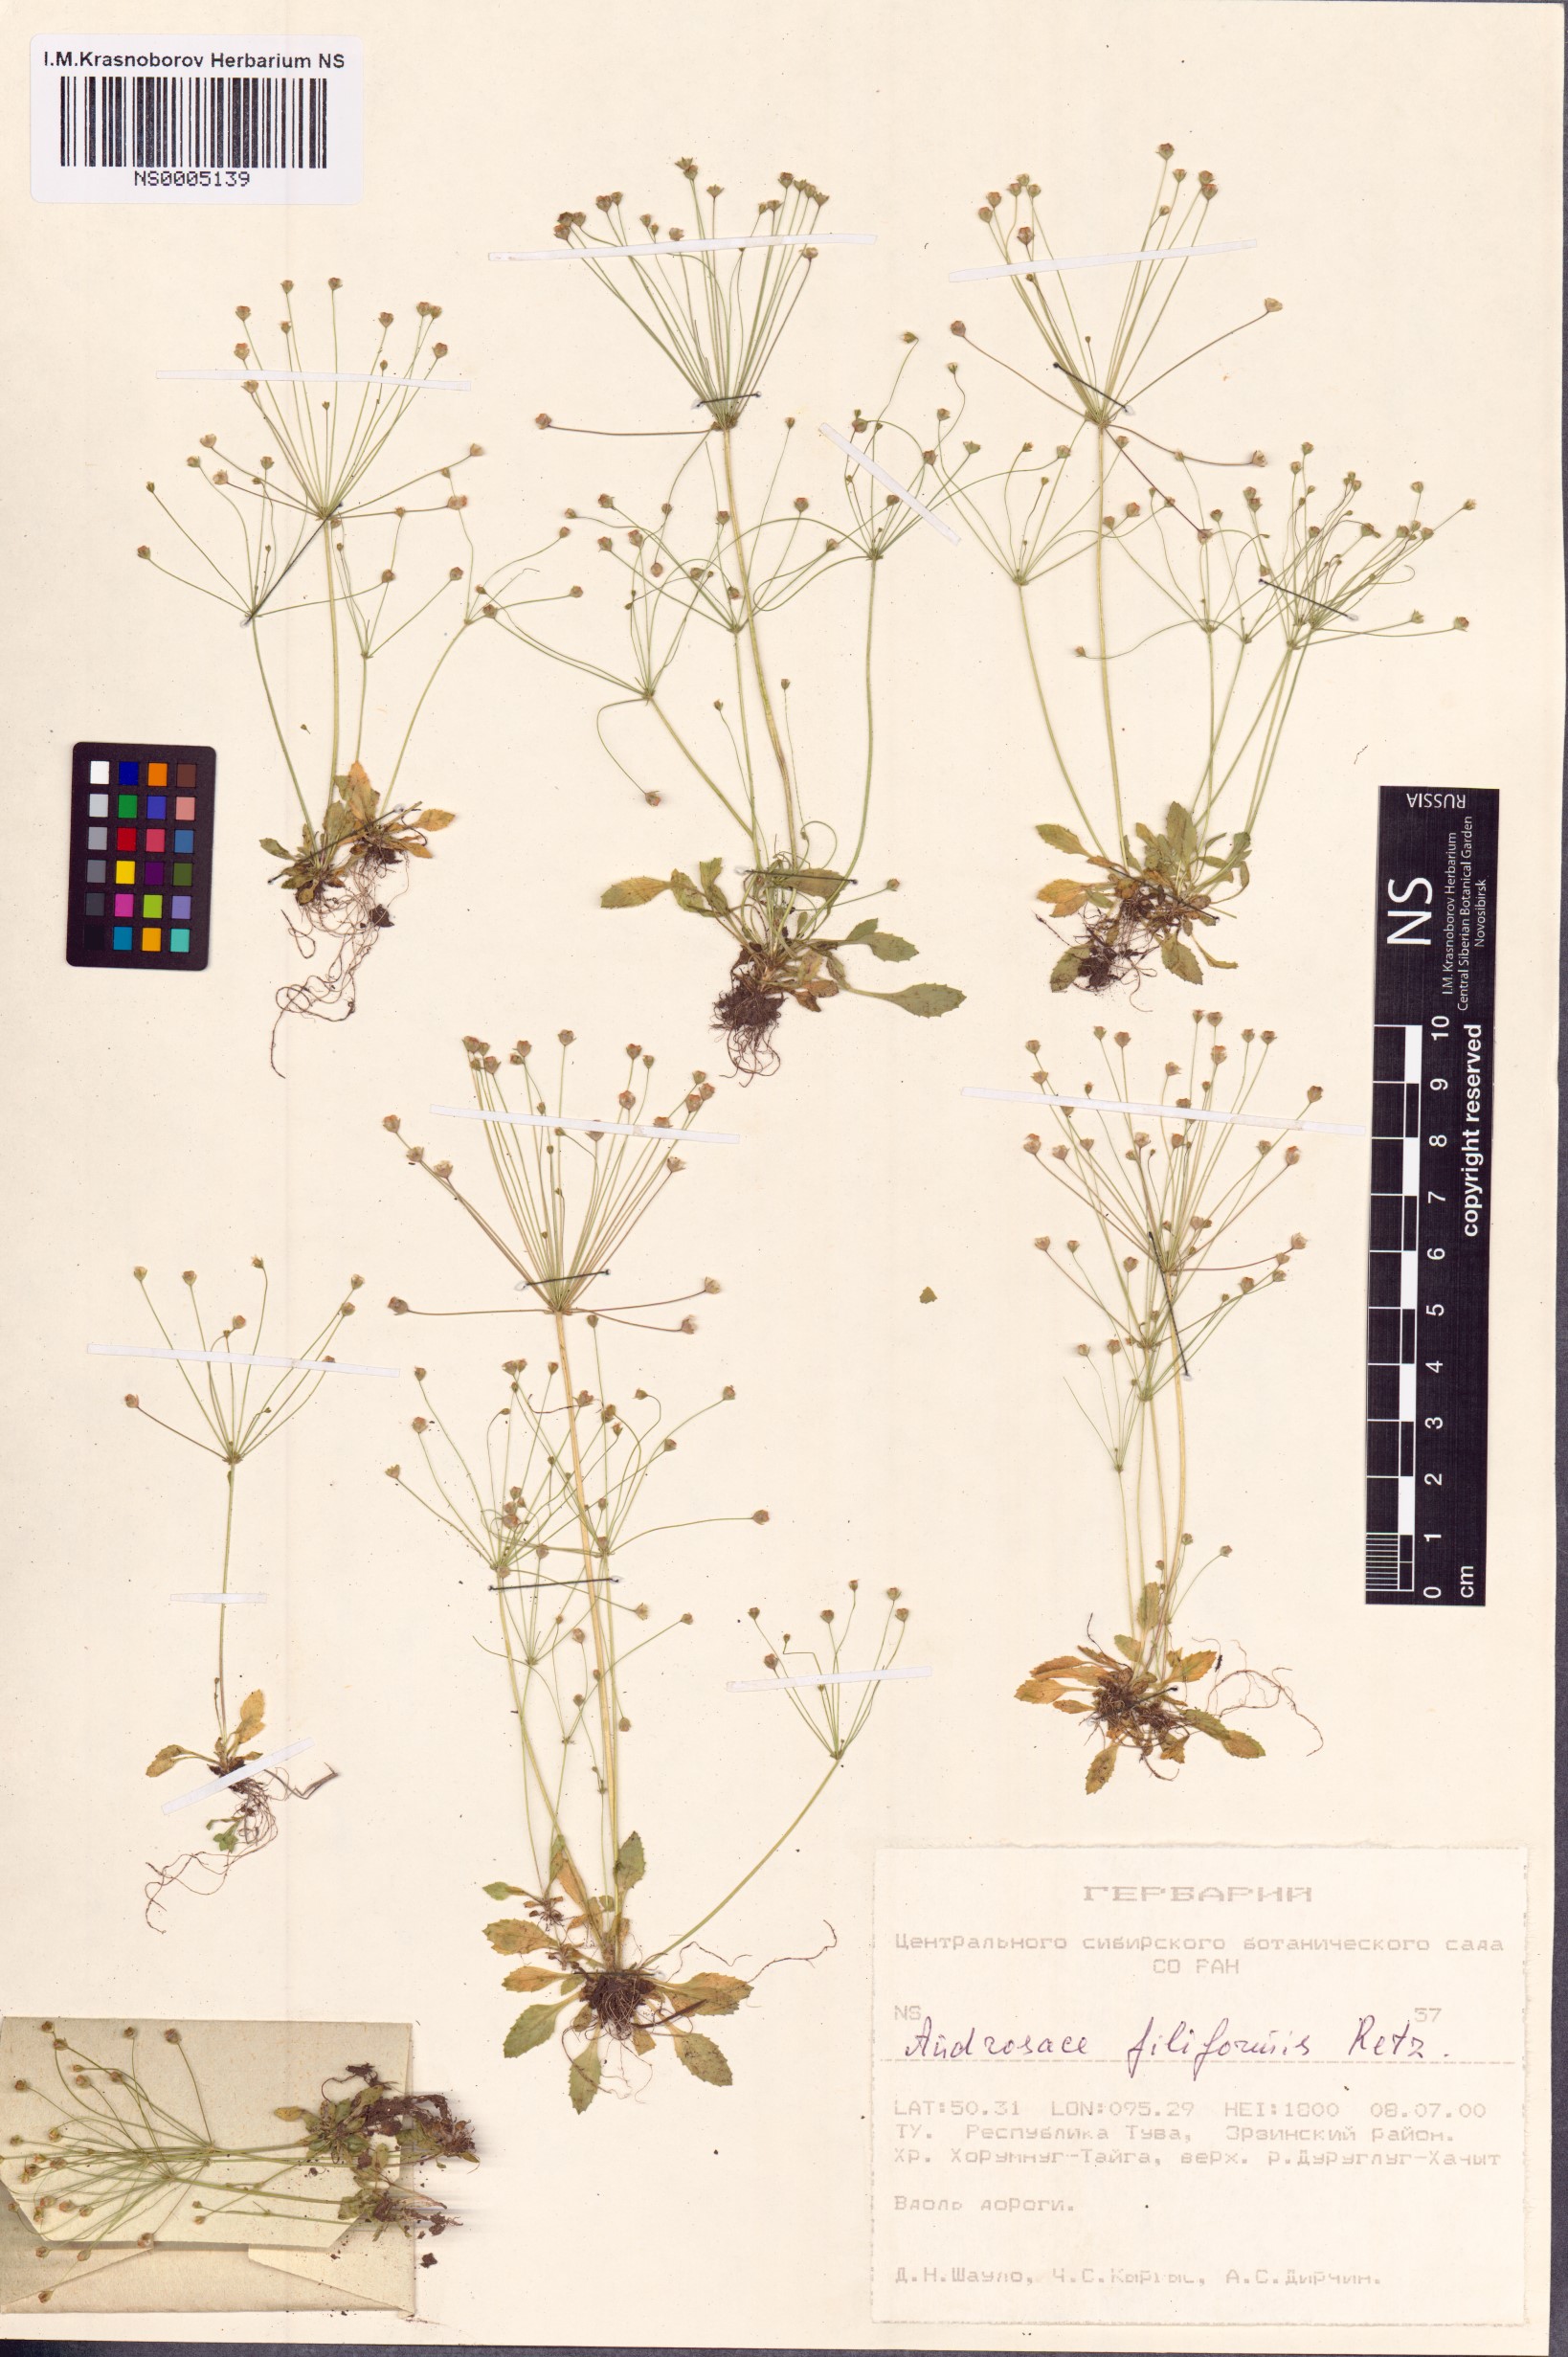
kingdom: Plantae
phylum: Tracheophyta
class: Magnoliopsida
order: Ericales
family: Primulaceae
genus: Androsace
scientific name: Androsace filiformis
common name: Filiform rock jasmine
